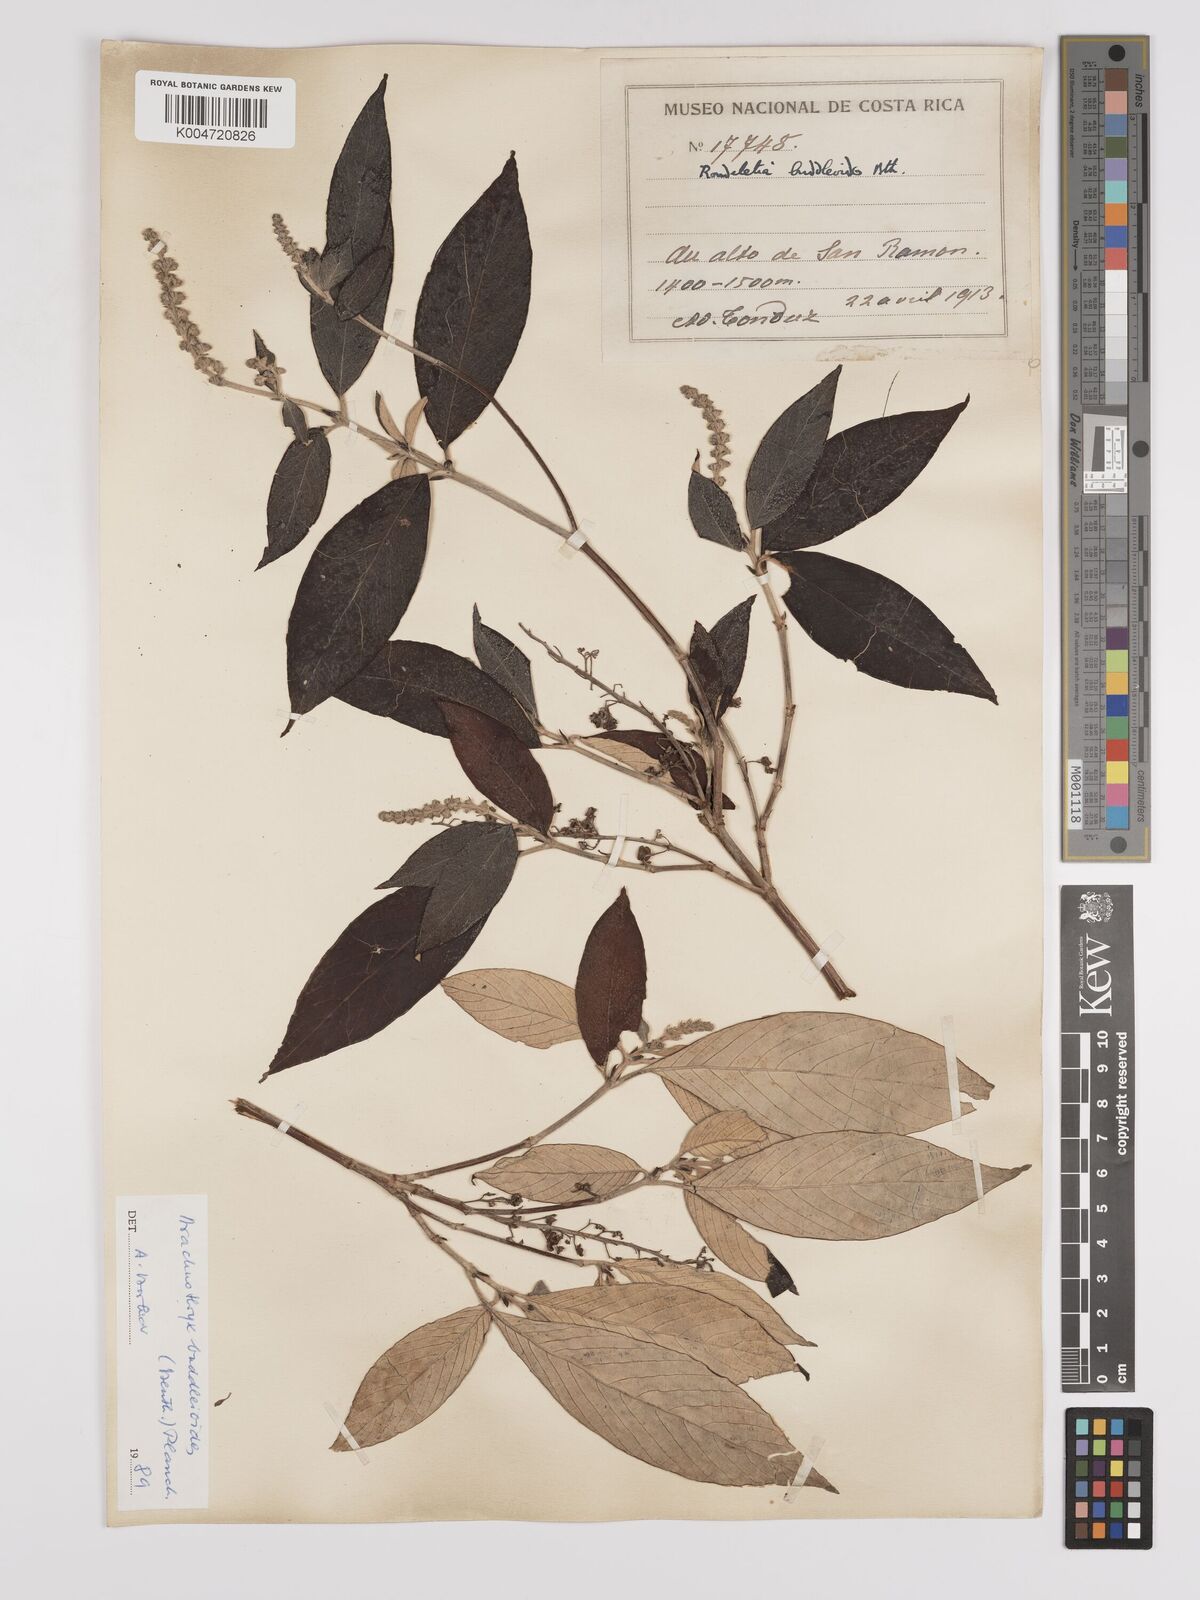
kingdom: Plantae
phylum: Tracheophyta
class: Magnoliopsida
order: Gentianales
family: Rubiaceae
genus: Arachnothryx
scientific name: Arachnothryx buddleioides
